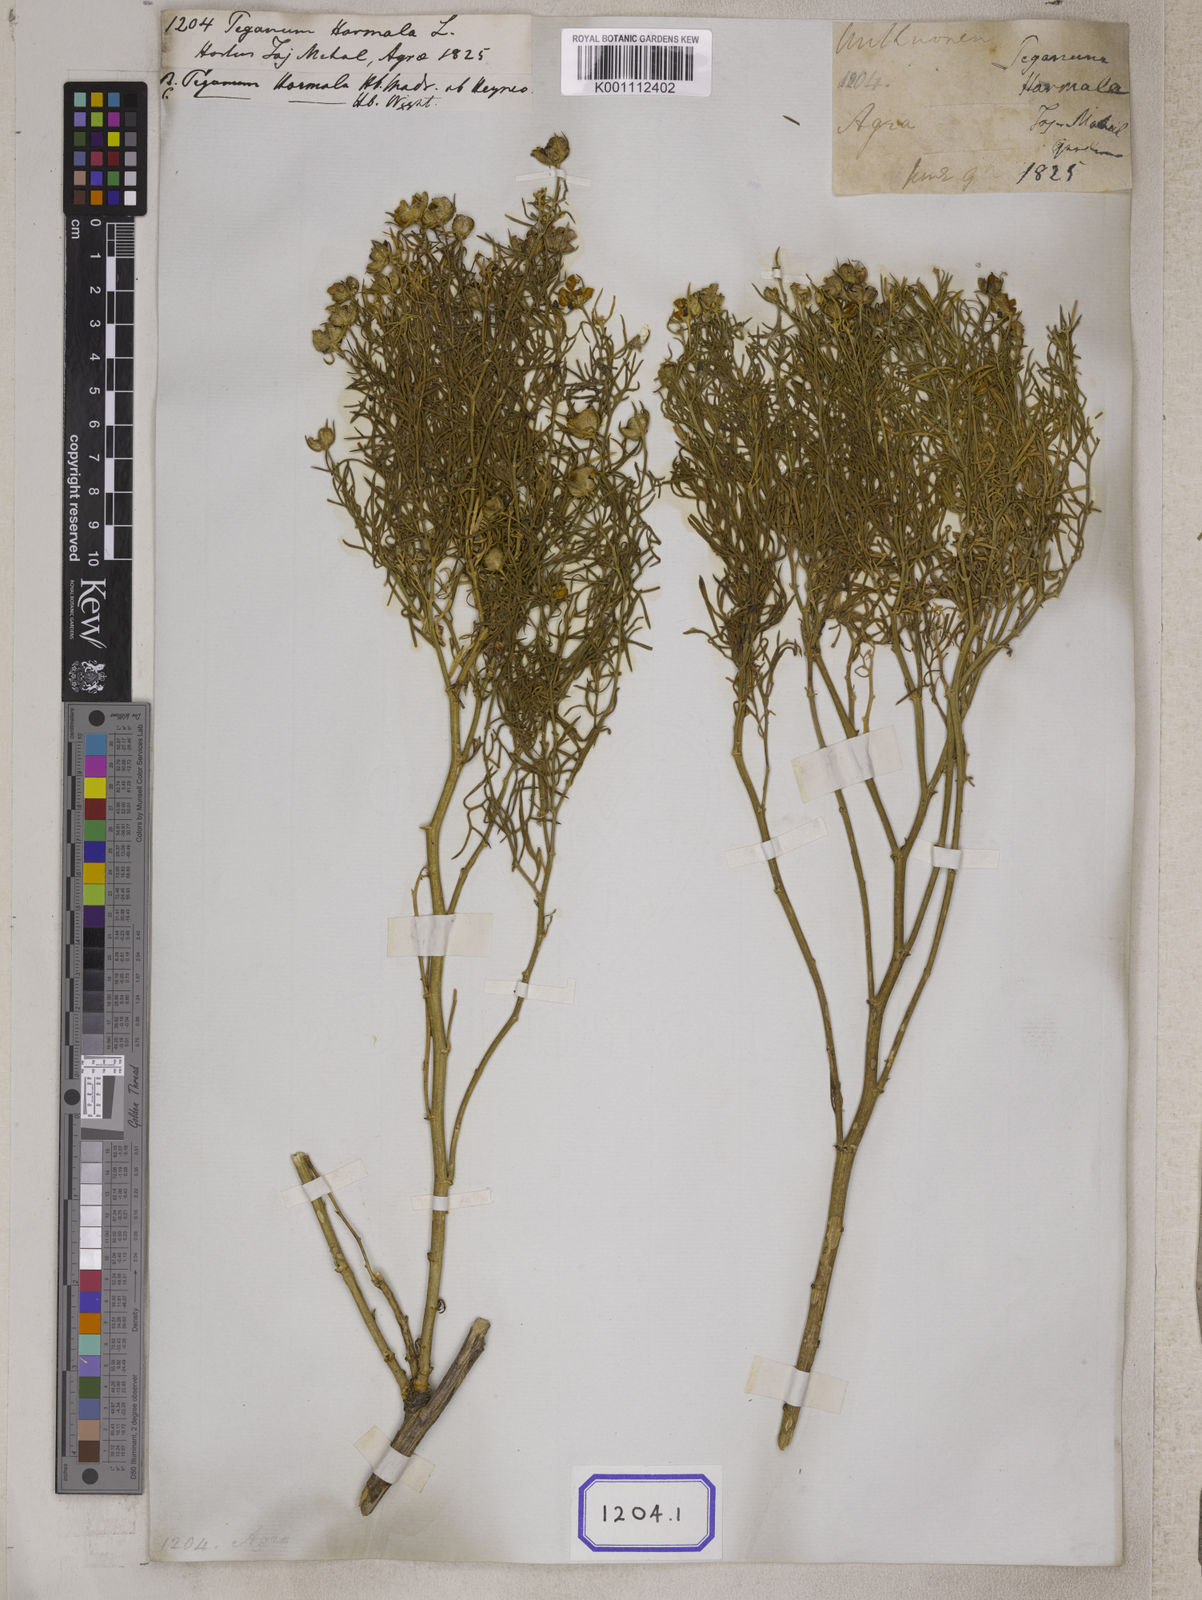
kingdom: Plantae
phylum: Tracheophyta
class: Magnoliopsida
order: Sapindales
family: Tetradiclidaceae
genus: Peganum
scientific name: Peganum harmala
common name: Harmal peganum
